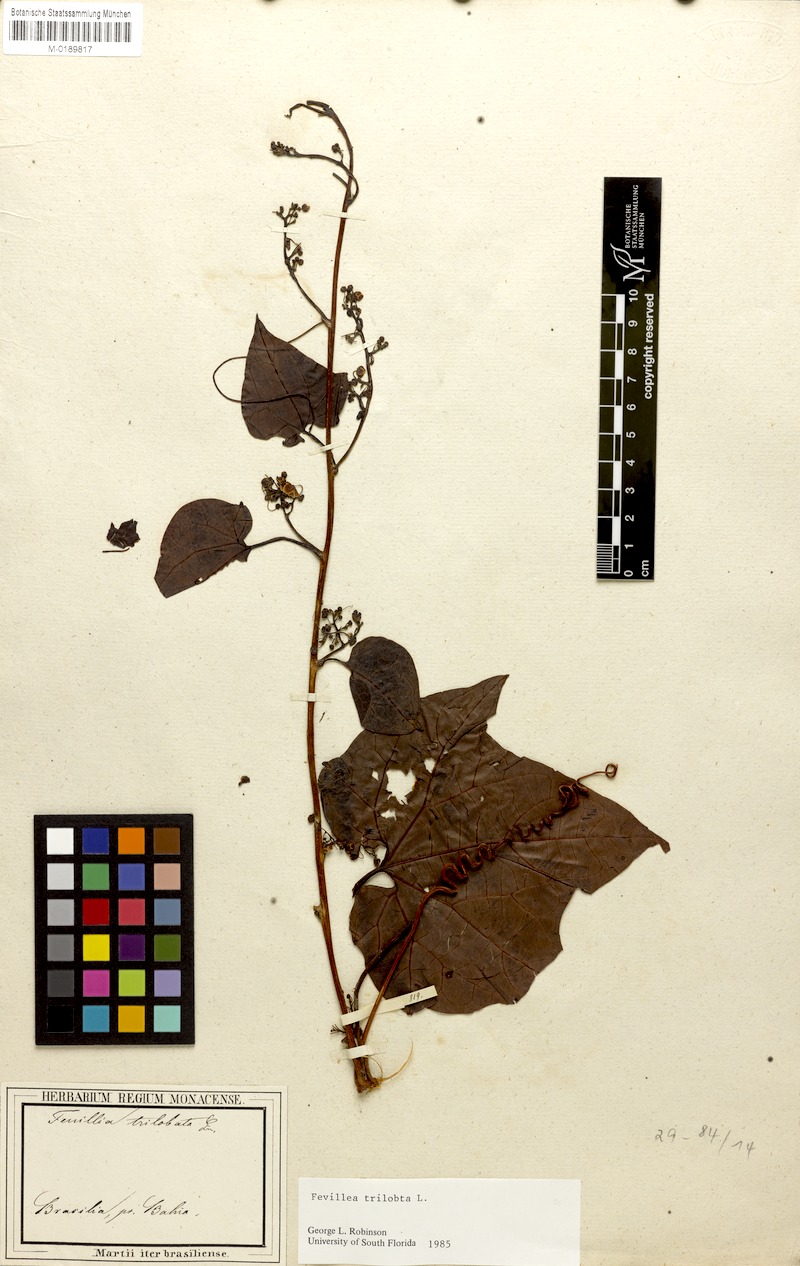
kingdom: Plantae
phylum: Tracheophyta
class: Magnoliopsida
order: Cucurbitales
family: Cucurbitaceae
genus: Fevillea
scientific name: Fevillea trilobata
